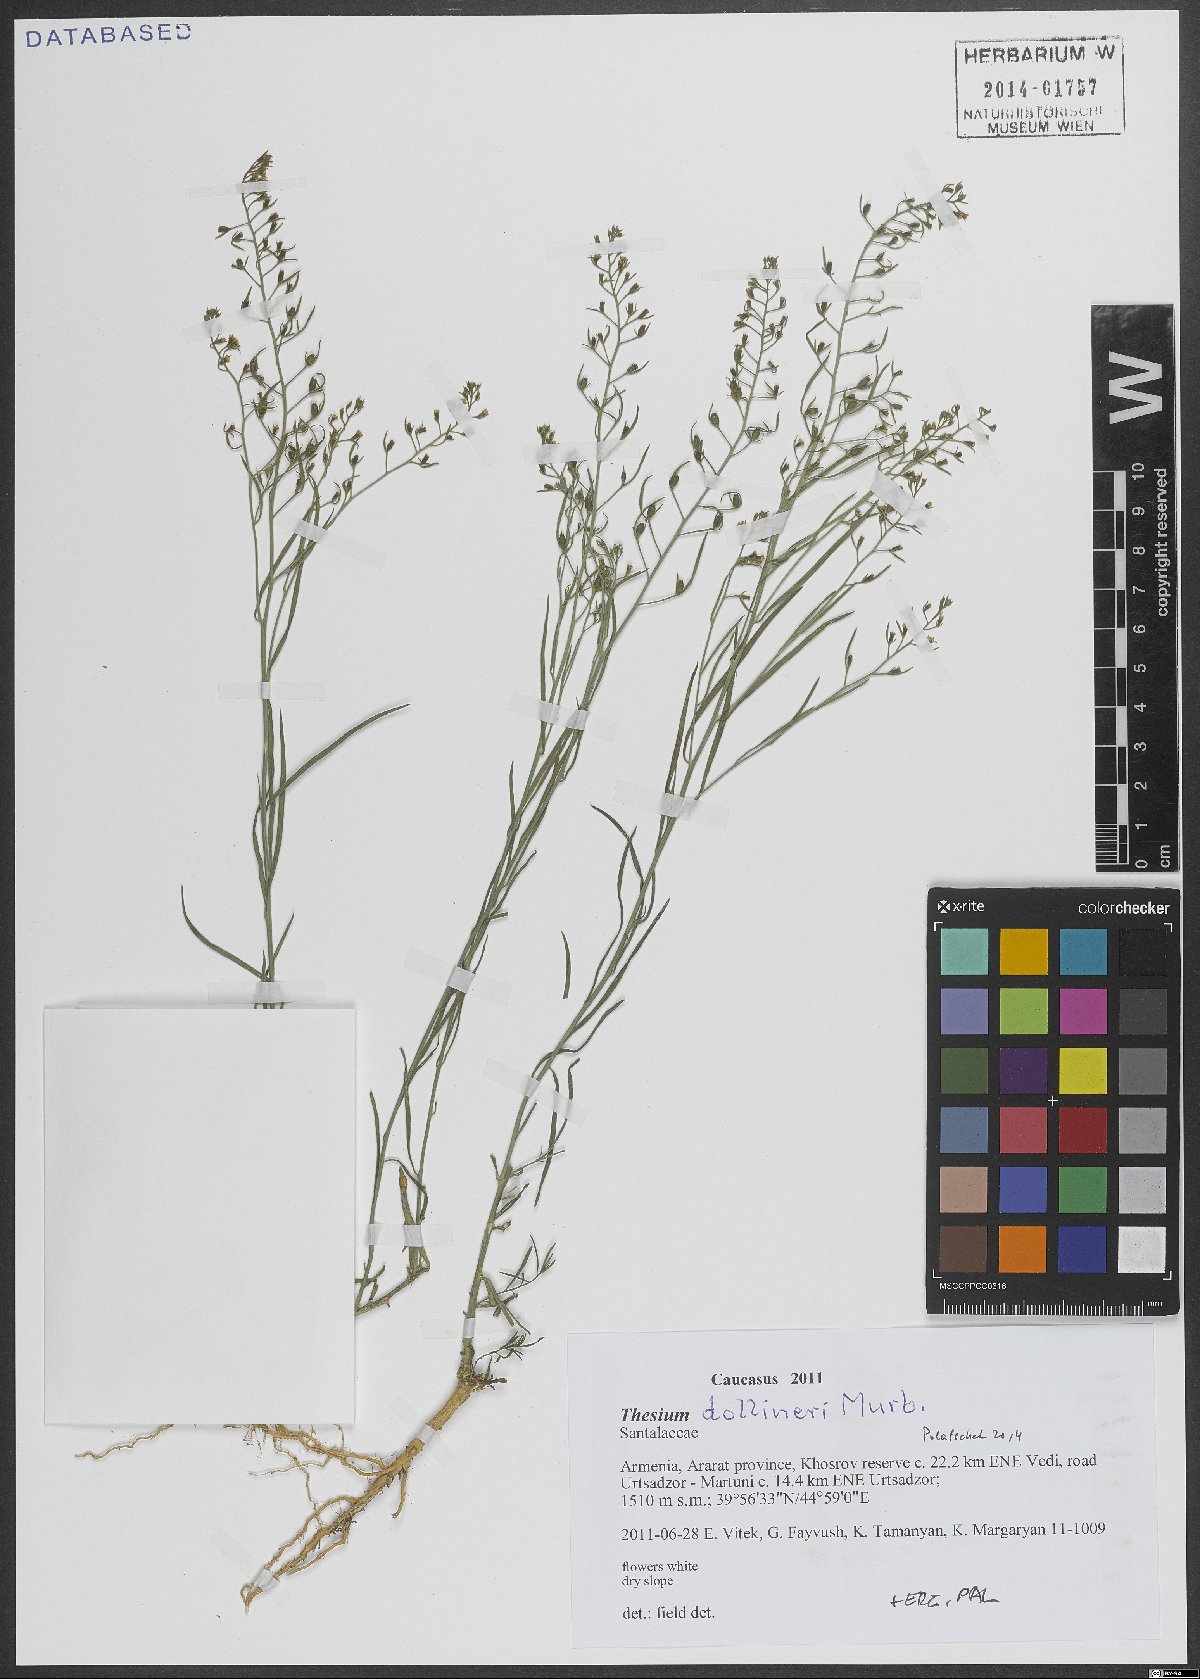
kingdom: Plantae
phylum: Tracheophyta
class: Magnoliopsida
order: Santalales
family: Thesiaceae
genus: Thesium
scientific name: Thesium dollineri
